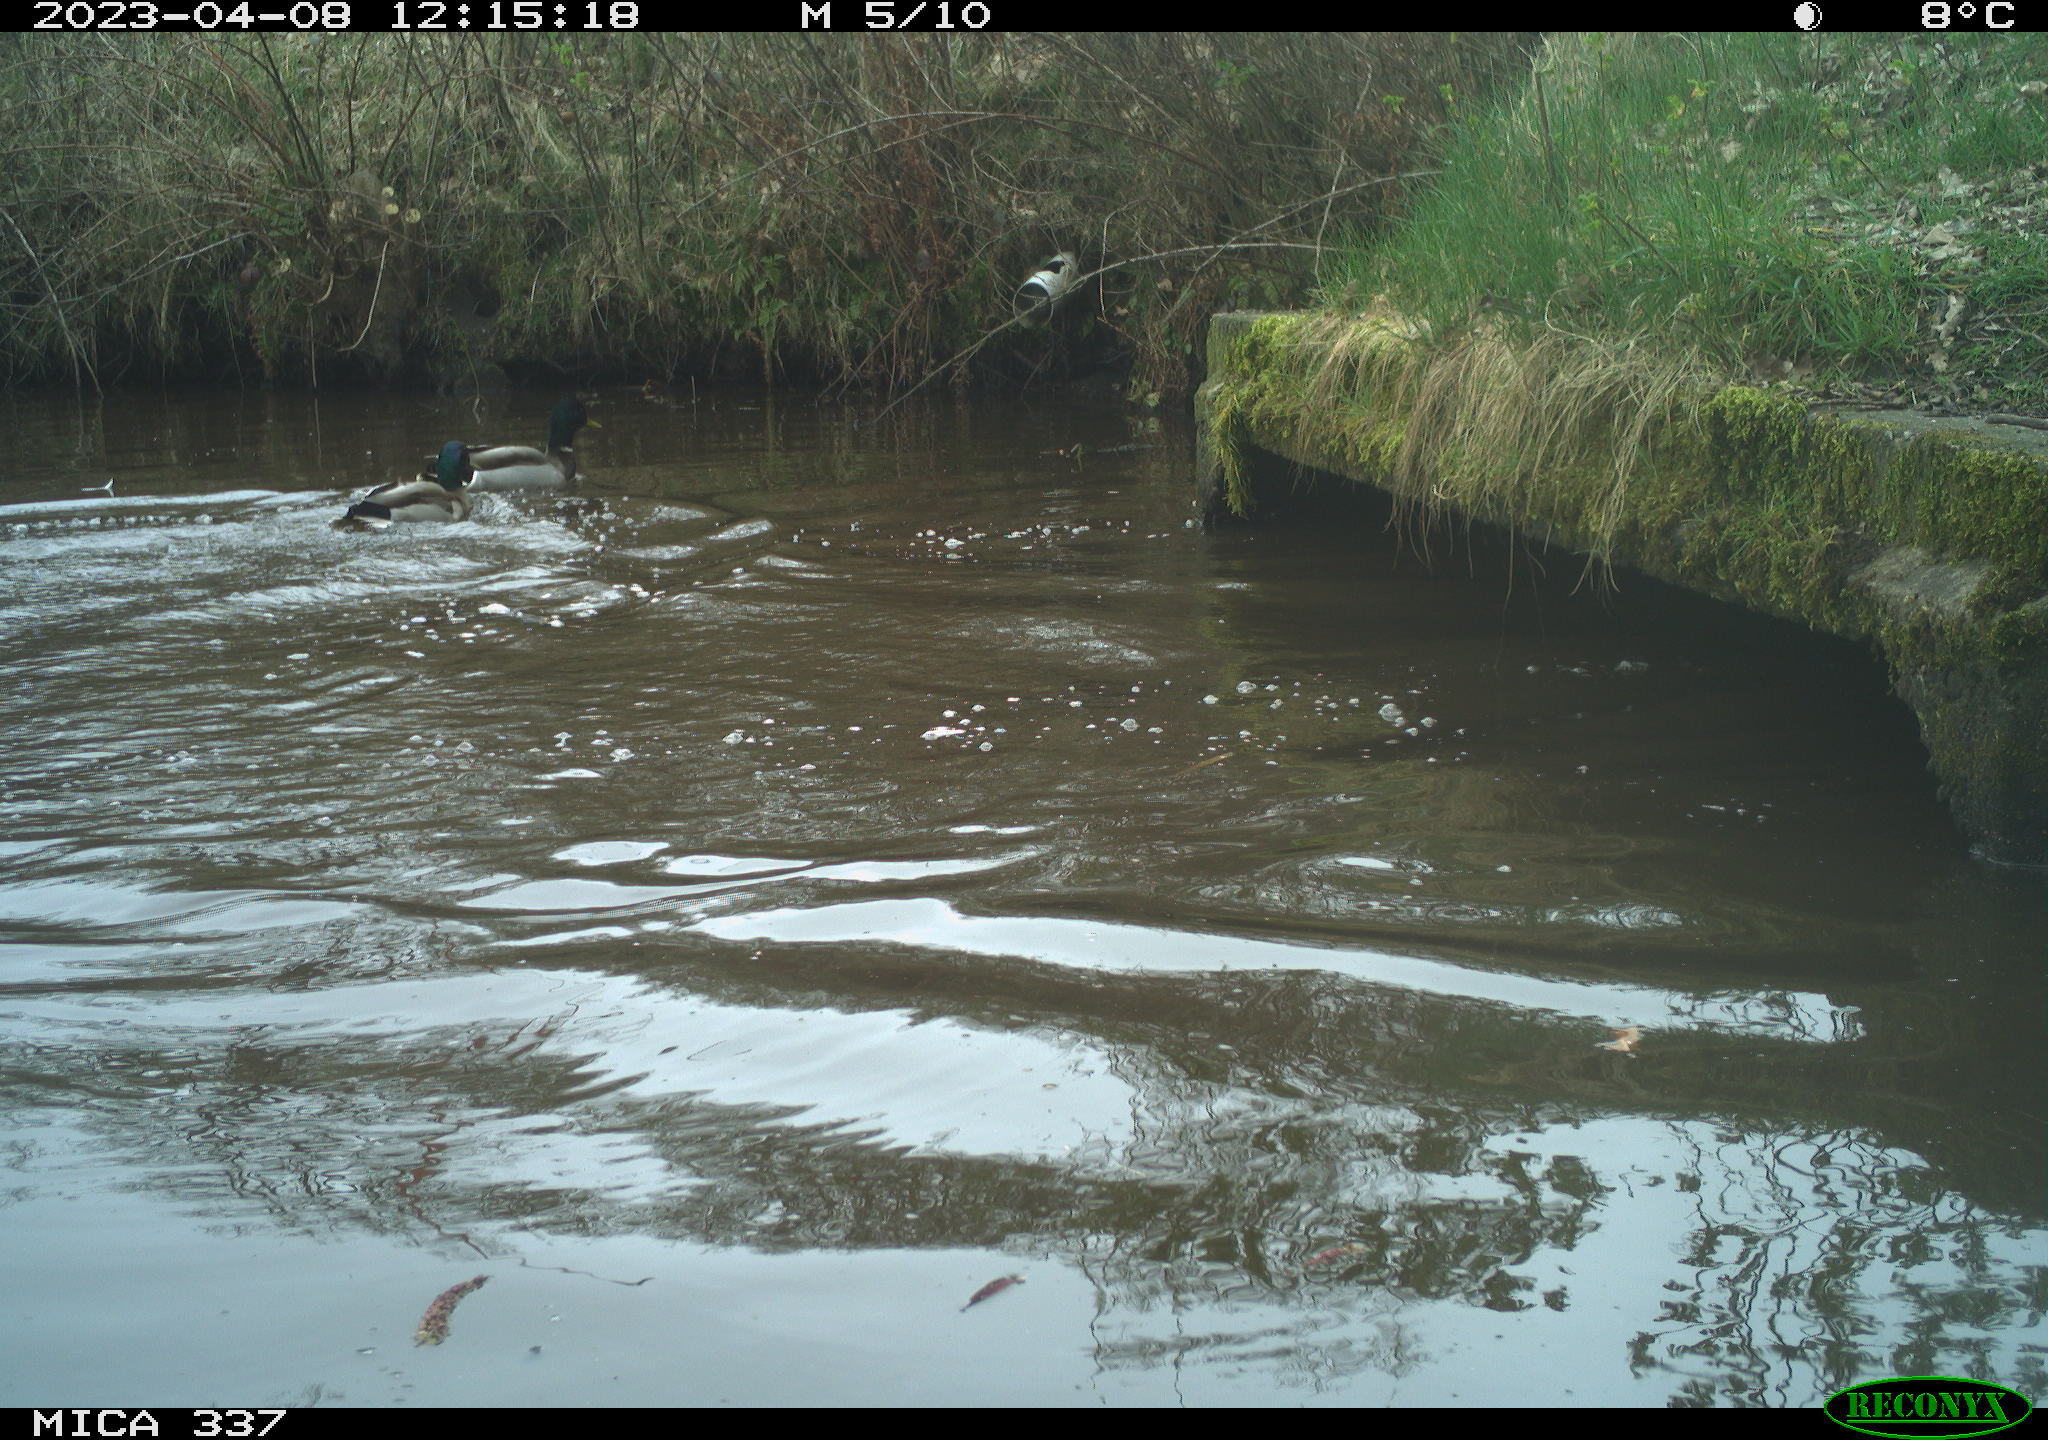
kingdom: Animalia
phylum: Chordata
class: Aves
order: Anseriformes
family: Anatidae
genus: Anas
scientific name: Anas
